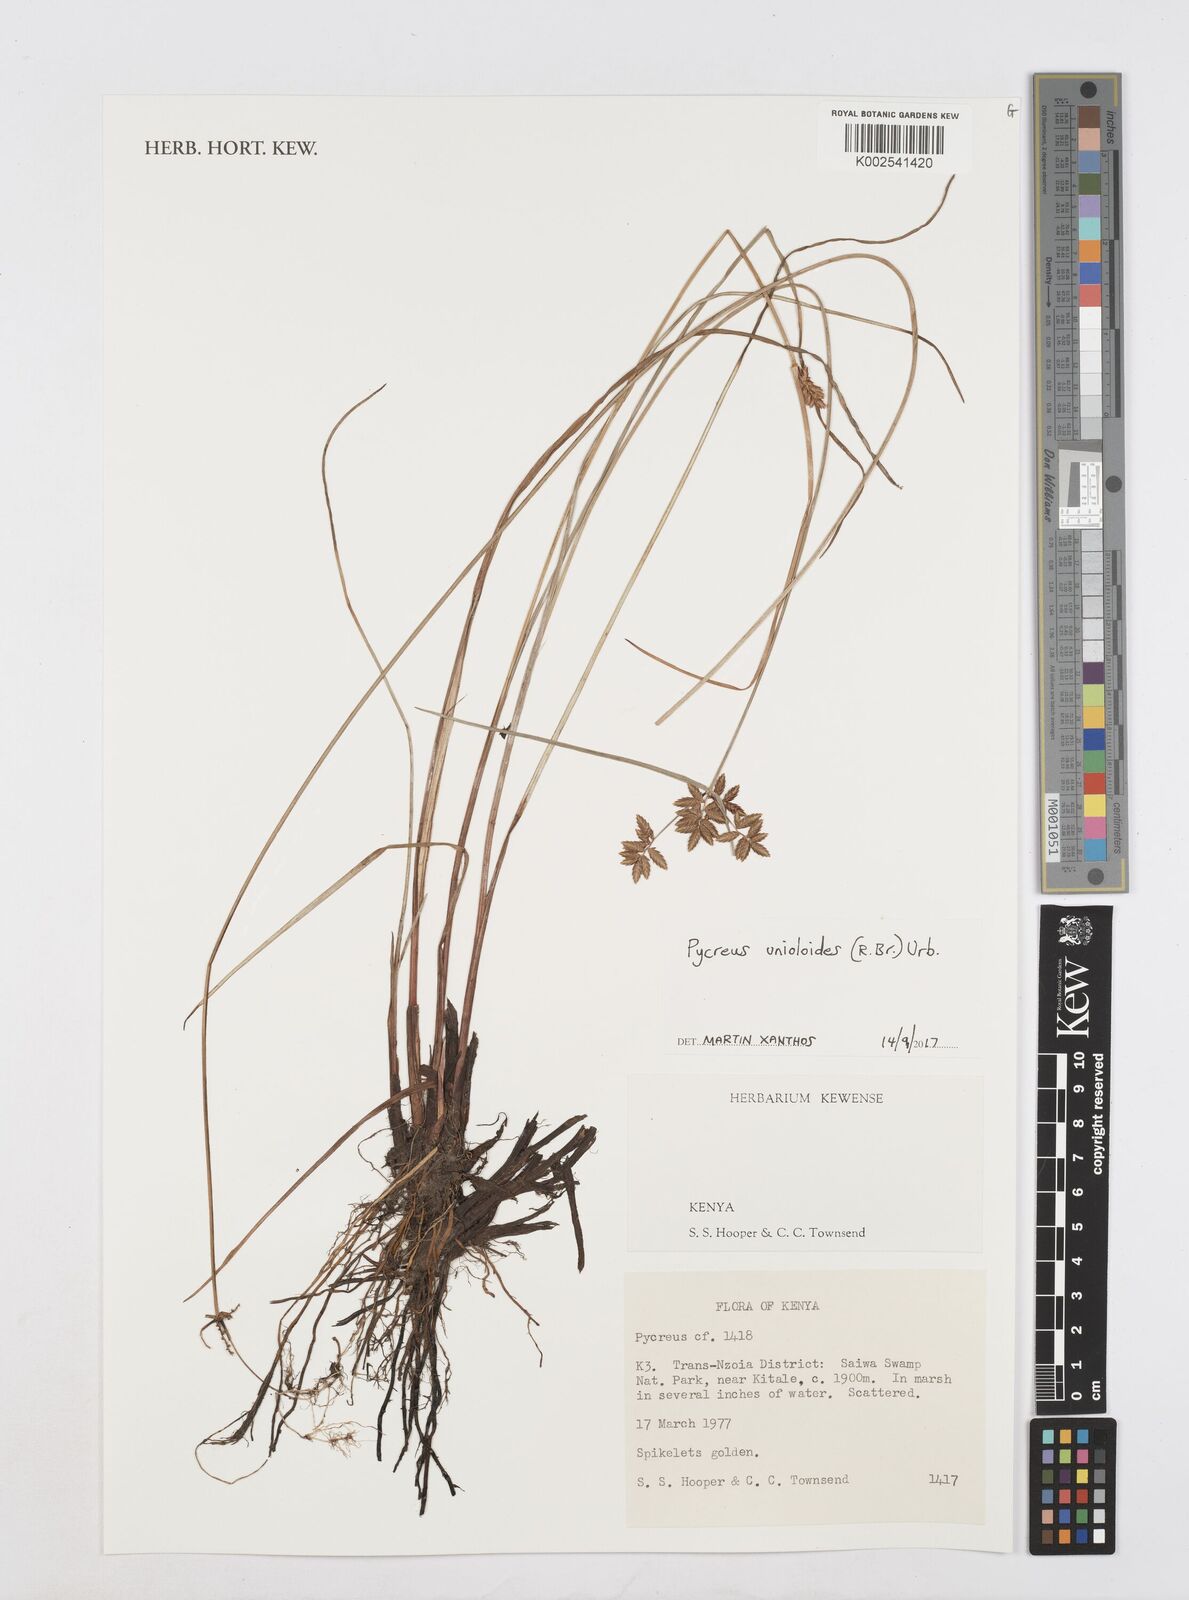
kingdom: Plantae
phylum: Tracheophyta
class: Liliopsida
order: Poales
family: Cyperaceae
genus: Cyperus
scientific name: Cyperus unioloides
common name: Uniola flatsedge
